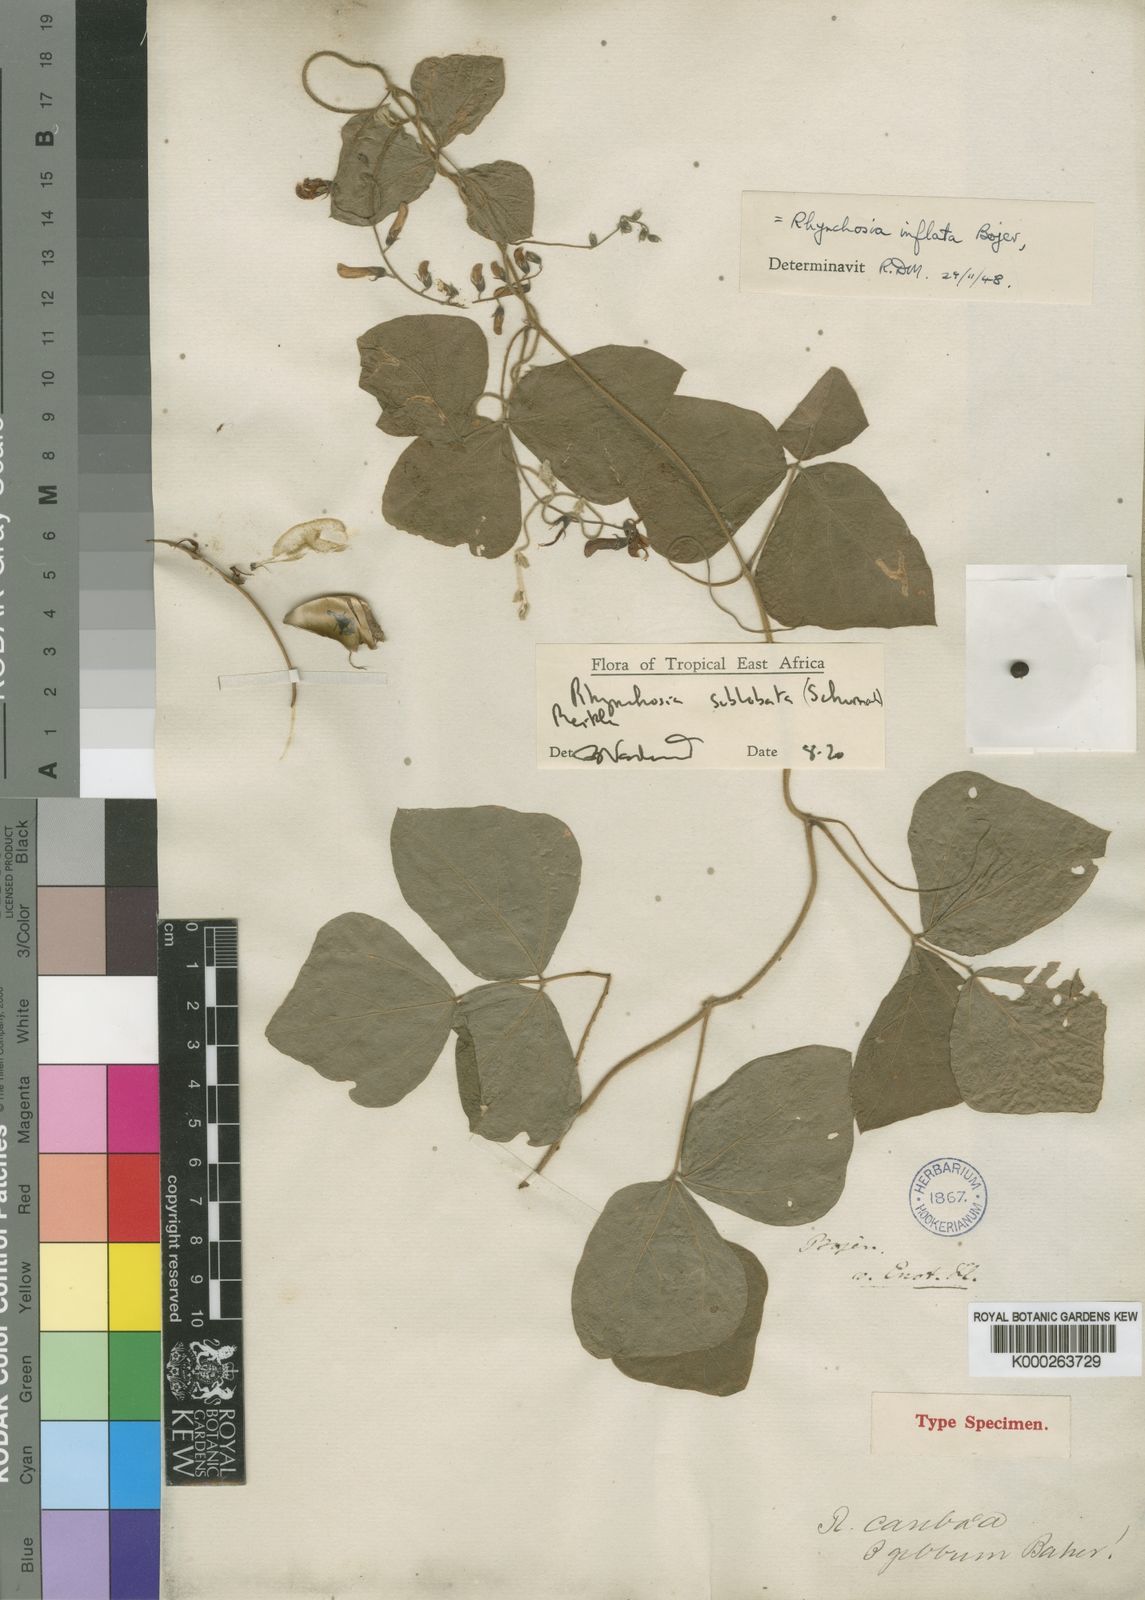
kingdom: Plantae
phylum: Tracheophyta
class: Magnoliopsida
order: Fabales
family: Fabaceae
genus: Rhynchosia
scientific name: Rhynchosia sublobata
